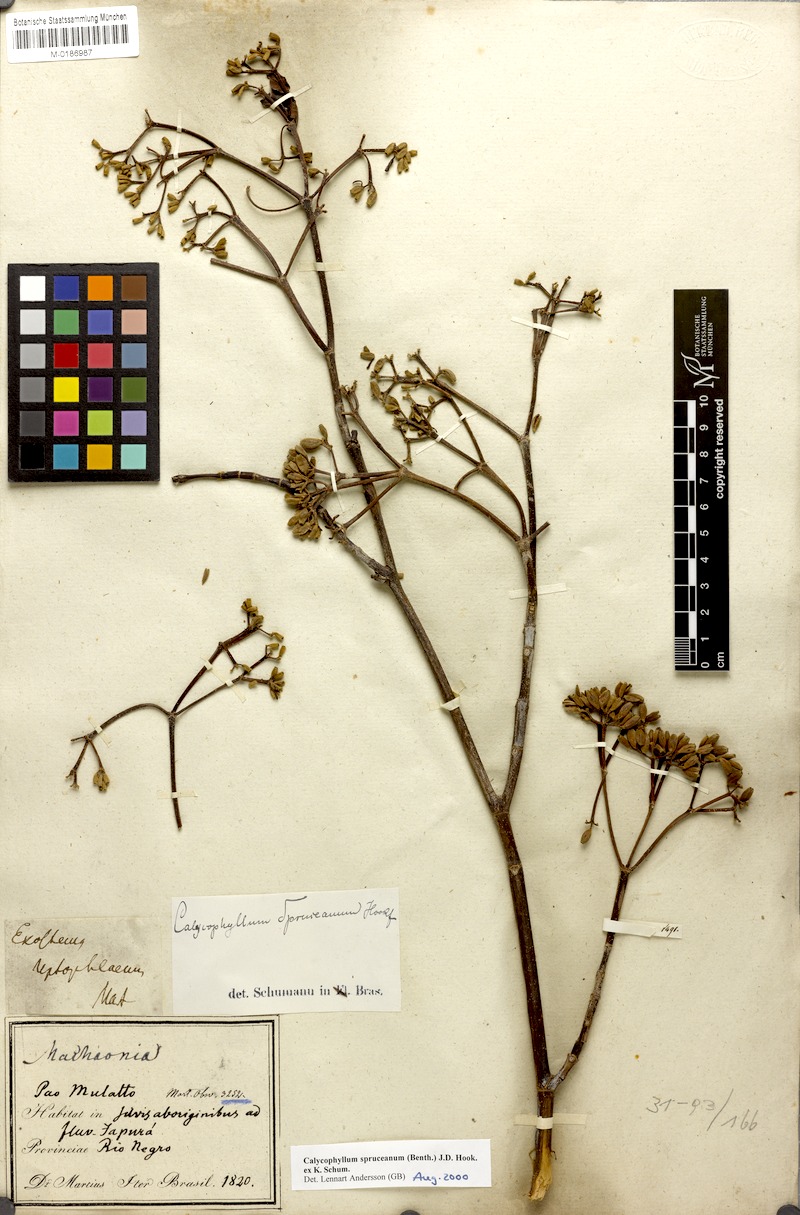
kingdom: Plantae
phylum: Tracheophyta
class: Magnoliopsida
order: Gentianales
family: Rubiaceae
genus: Calycophyllum
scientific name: Calycophyllum spruceanum
